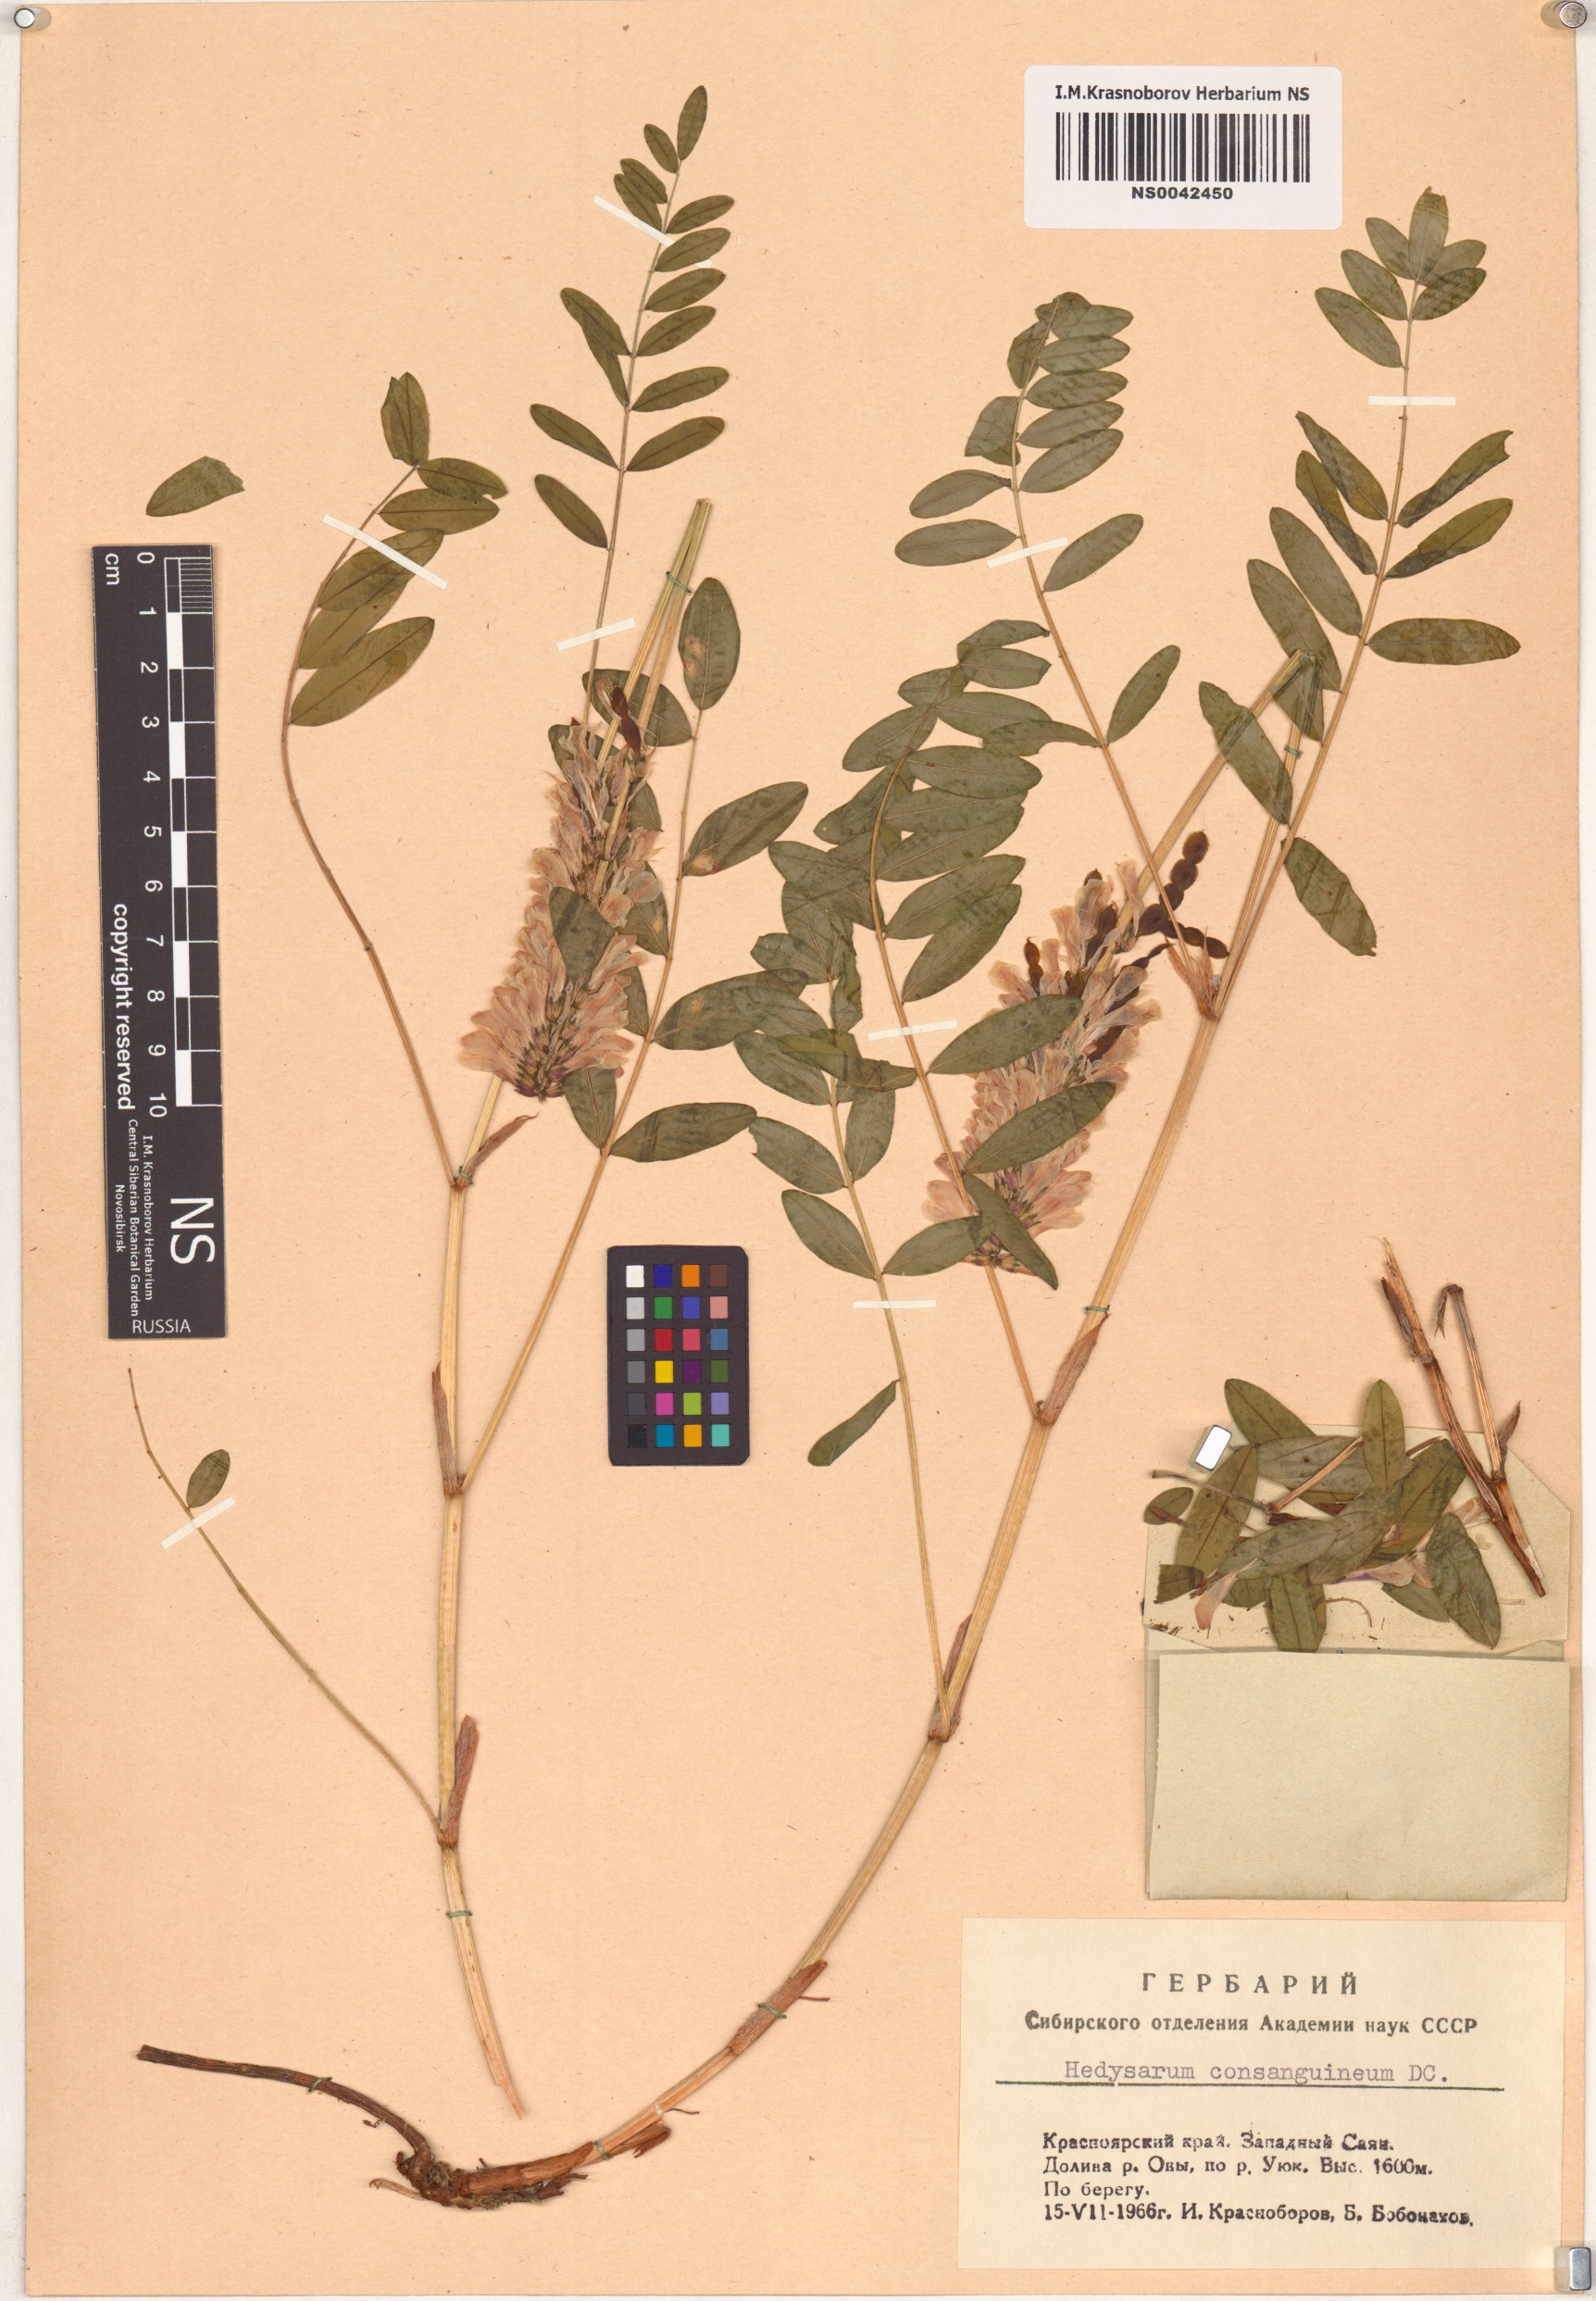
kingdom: Plantae
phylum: Tracheophyta
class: Magnoliopsida
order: Fabales
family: Fabaceae
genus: Hedysarum
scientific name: Hedysarum consanguineum
